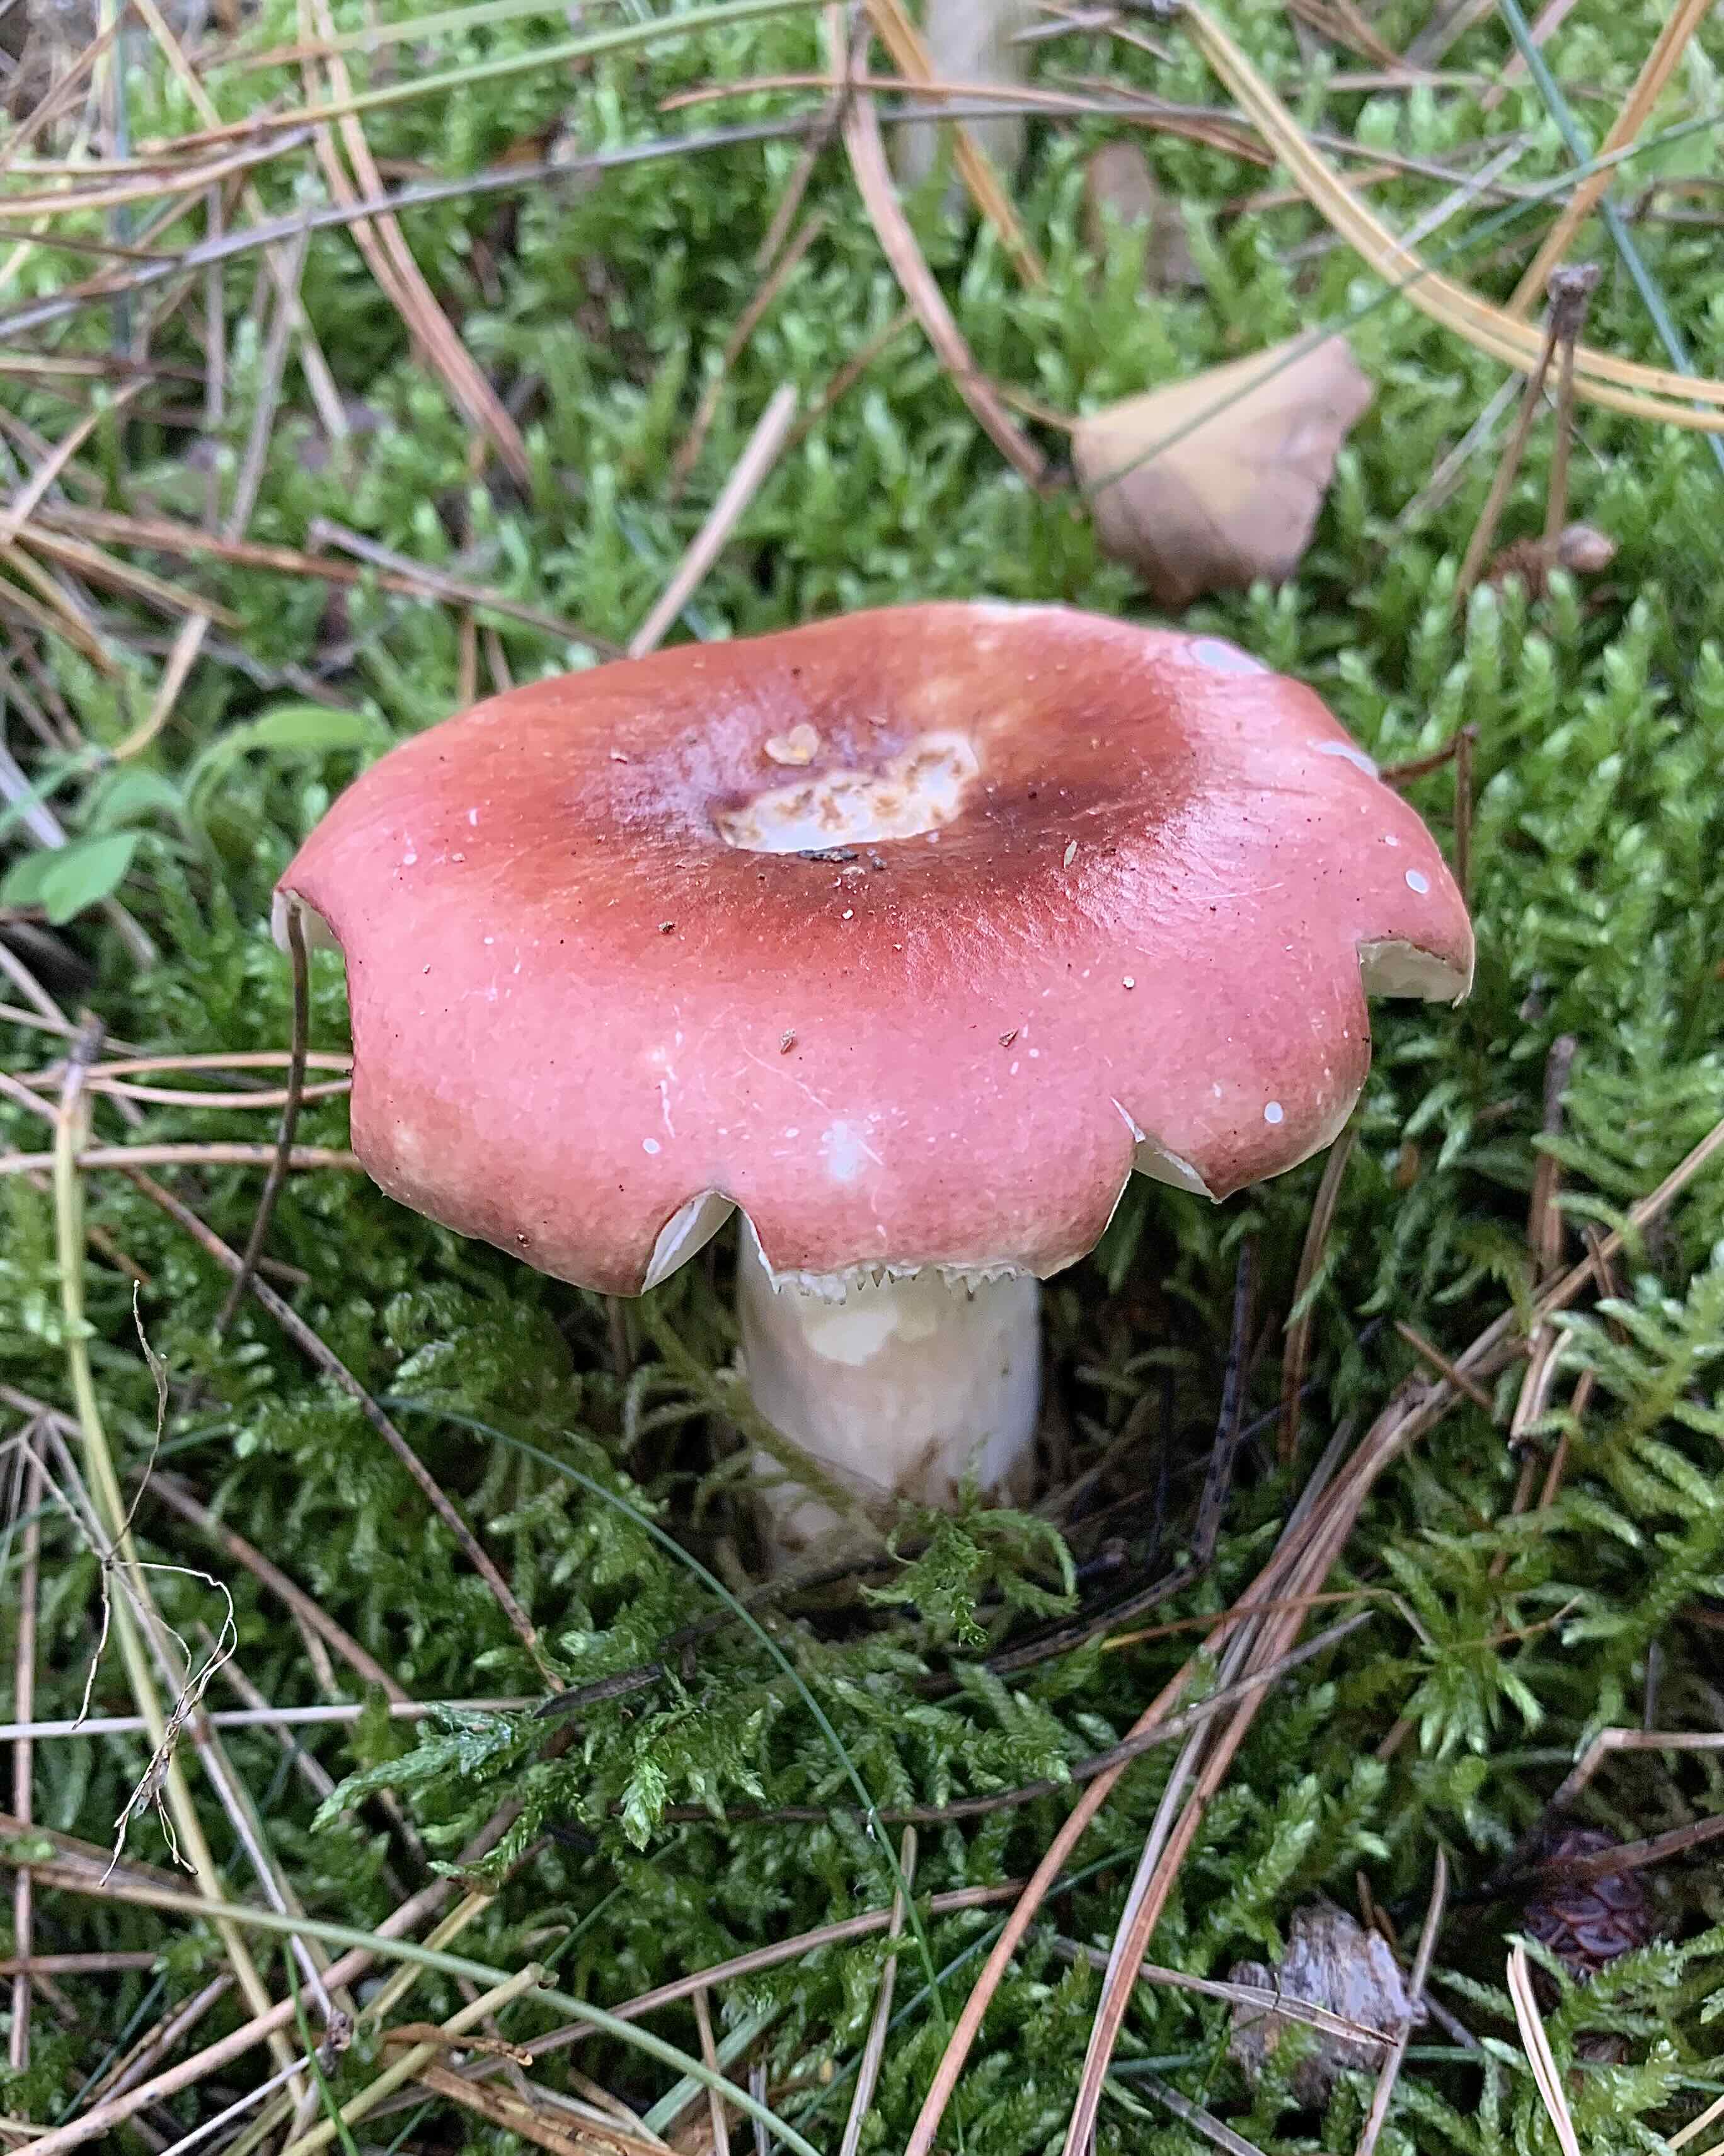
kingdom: Fungi
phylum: Basidiomycota
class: Agaricomycetes
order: Russulales
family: Russulaceae
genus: Russula
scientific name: Russula paludosa
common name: prægtig skørhat
